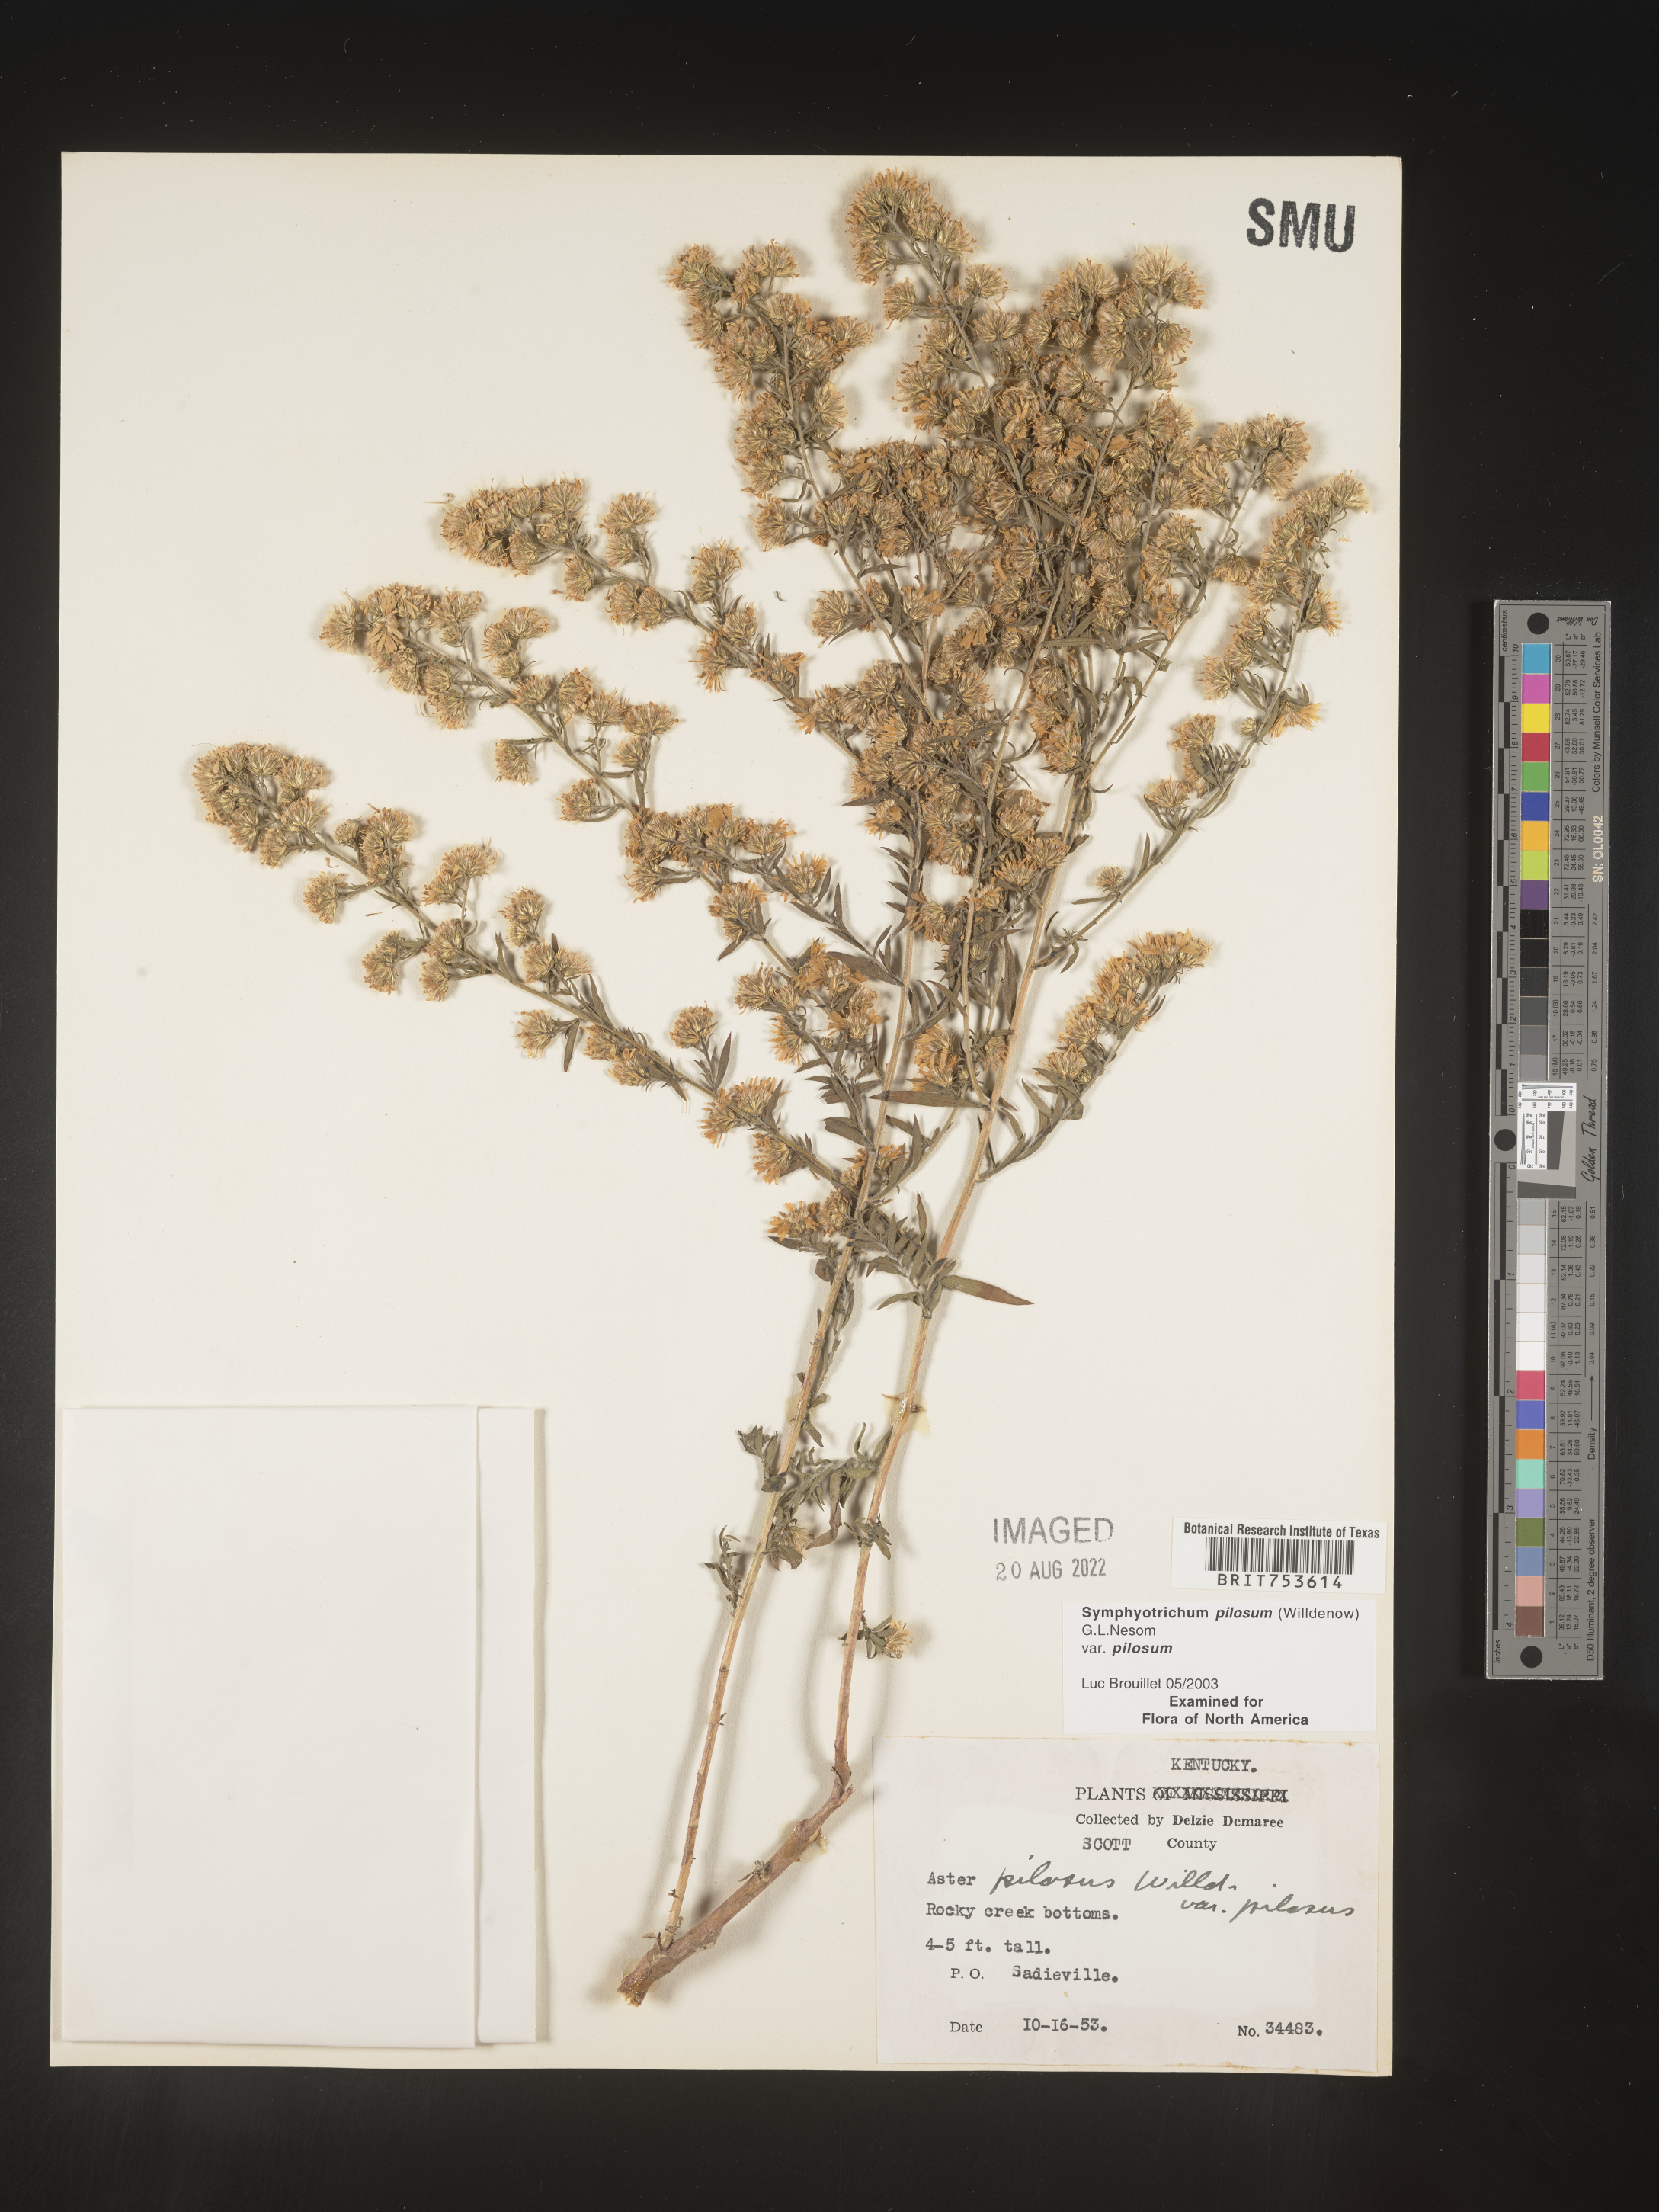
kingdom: Plantae
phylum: Tracheophyta
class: Magnoliopsida
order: Asterales
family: Asteraceae
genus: Symphyotrichum
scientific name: Symphyotrichum pilosum
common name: Awl aster
